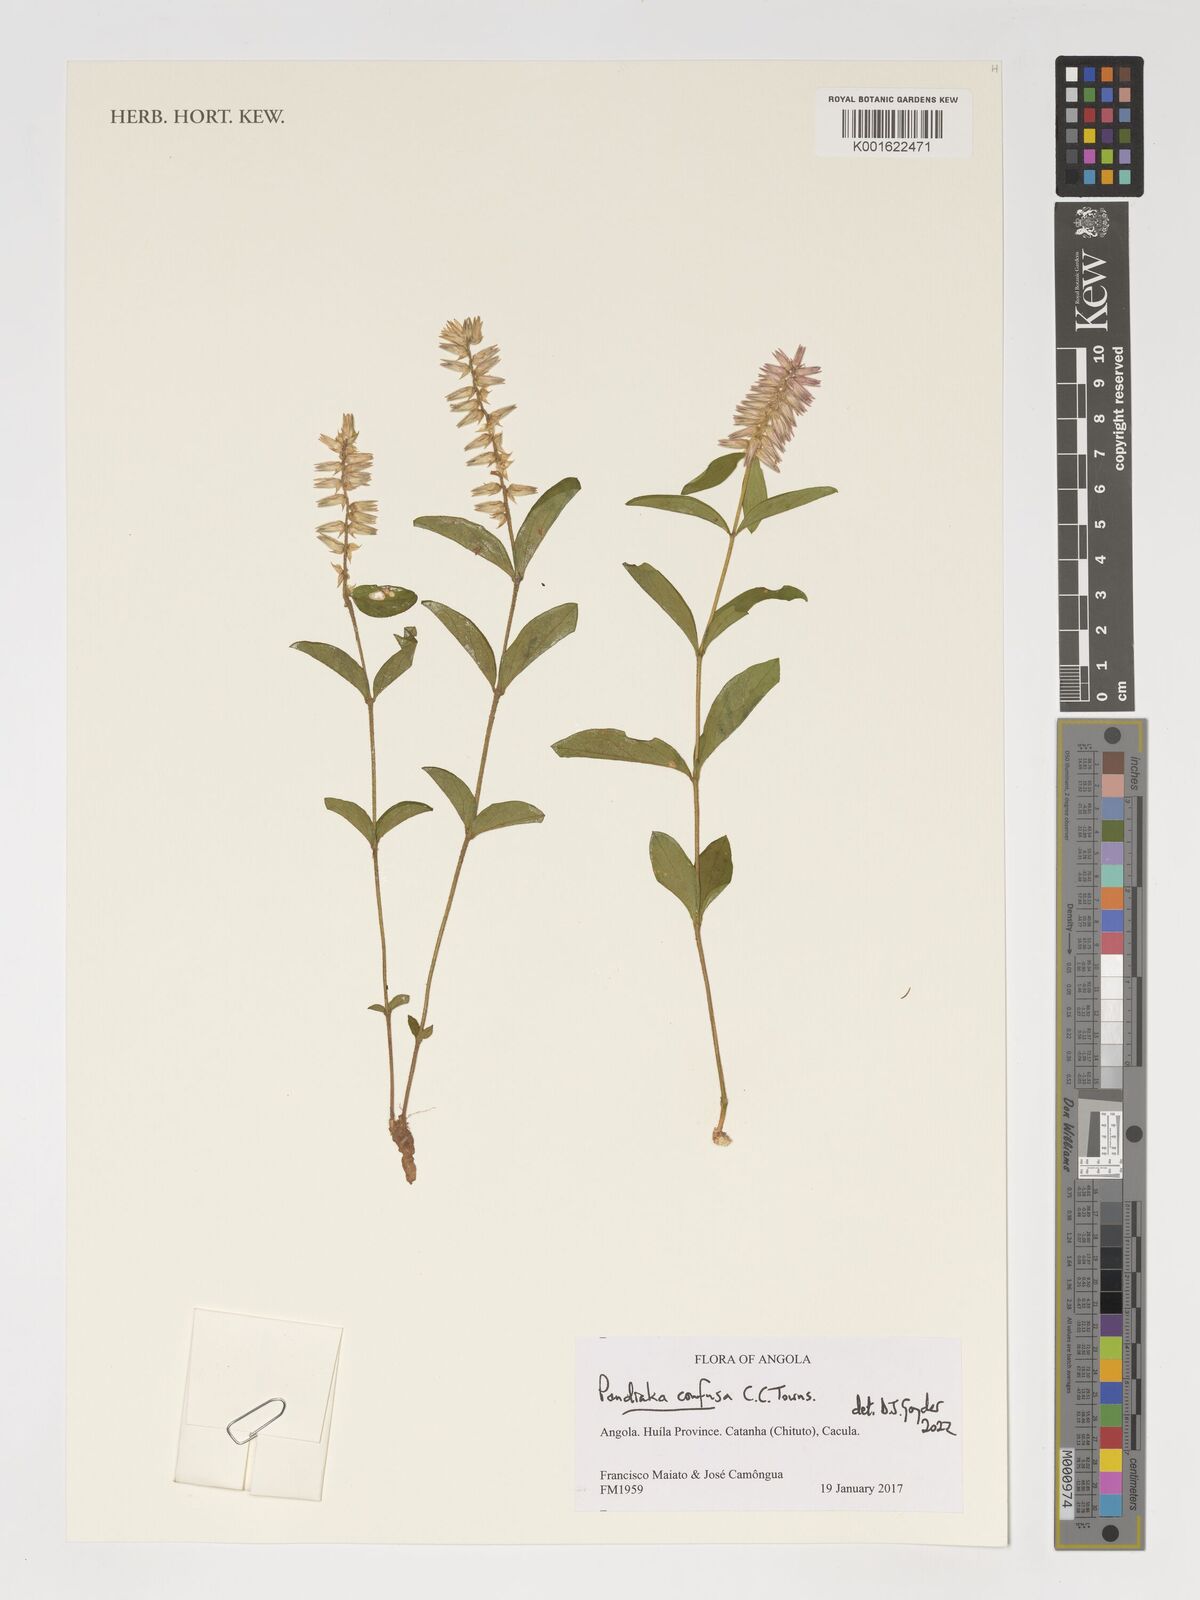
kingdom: Plantae
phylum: Tracheophyta
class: Magnoliopsida
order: Caryophyllales
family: Amaranthaceae
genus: Pandiaka
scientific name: Pandiaka confusa
